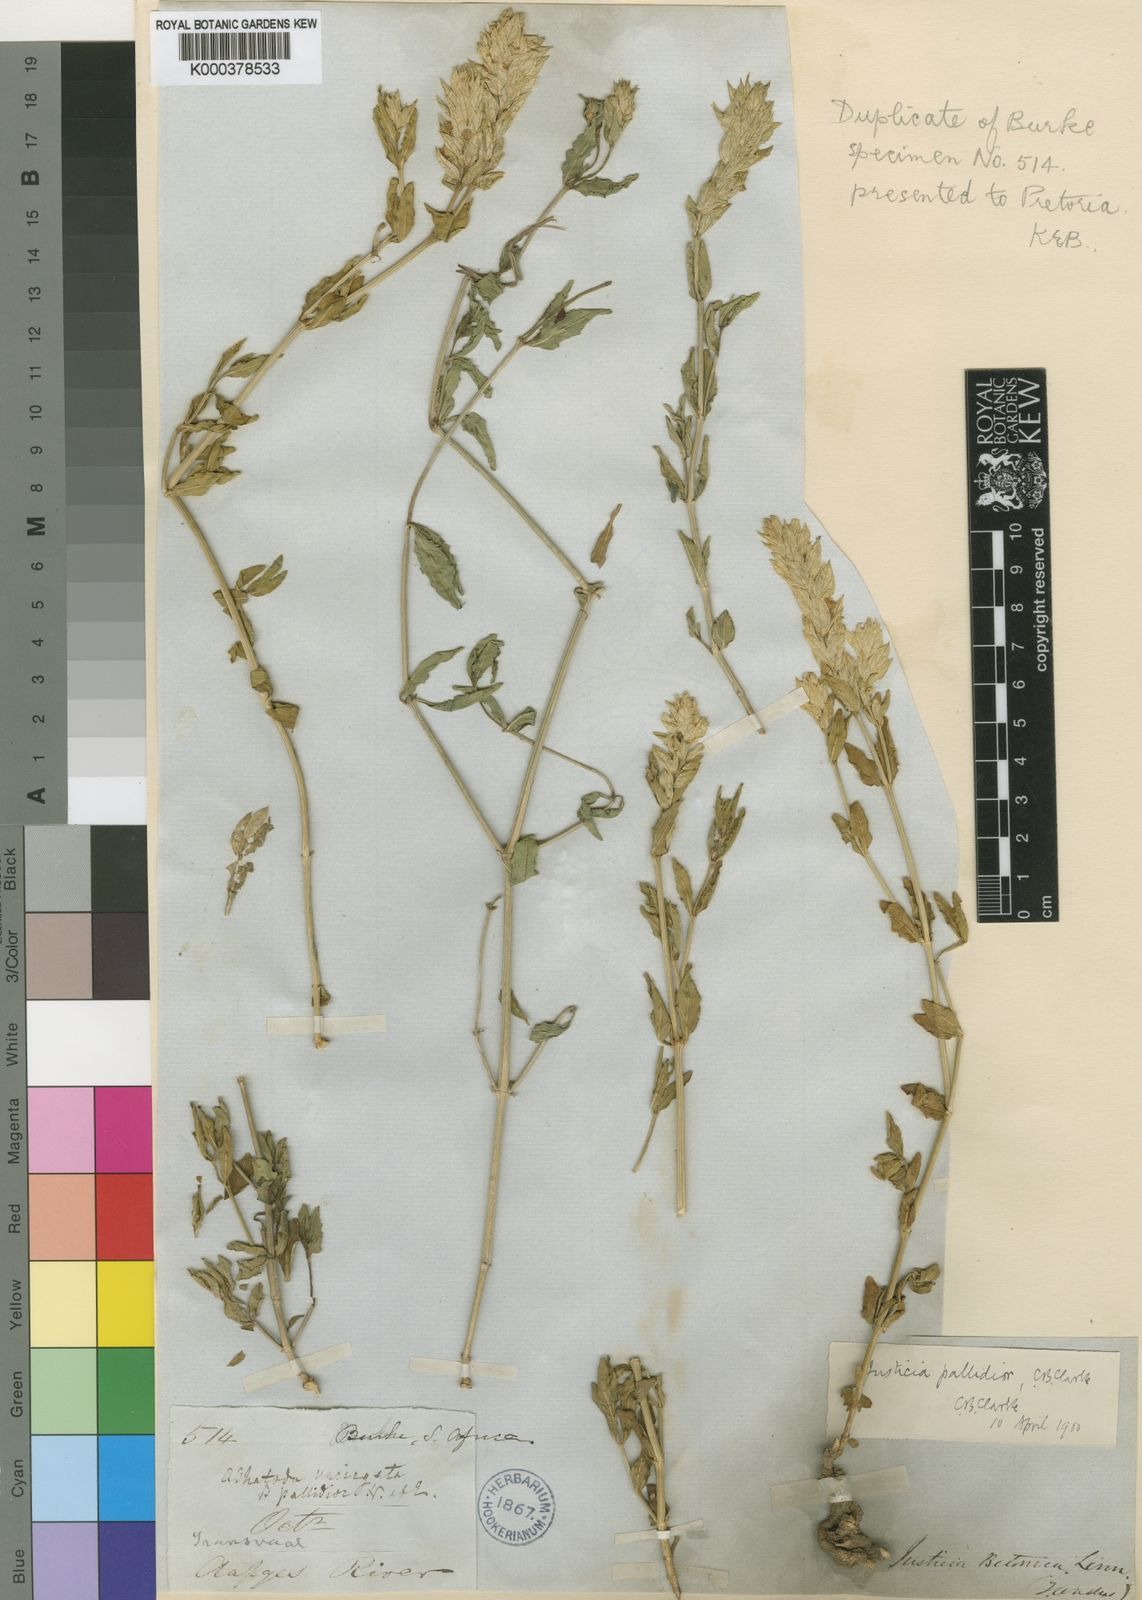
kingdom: Plantae
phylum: Tracheophyta
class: Magnoliopsida
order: Lamiales
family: Acanthaceae
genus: Nicoteba
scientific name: Nicoteba betonica
